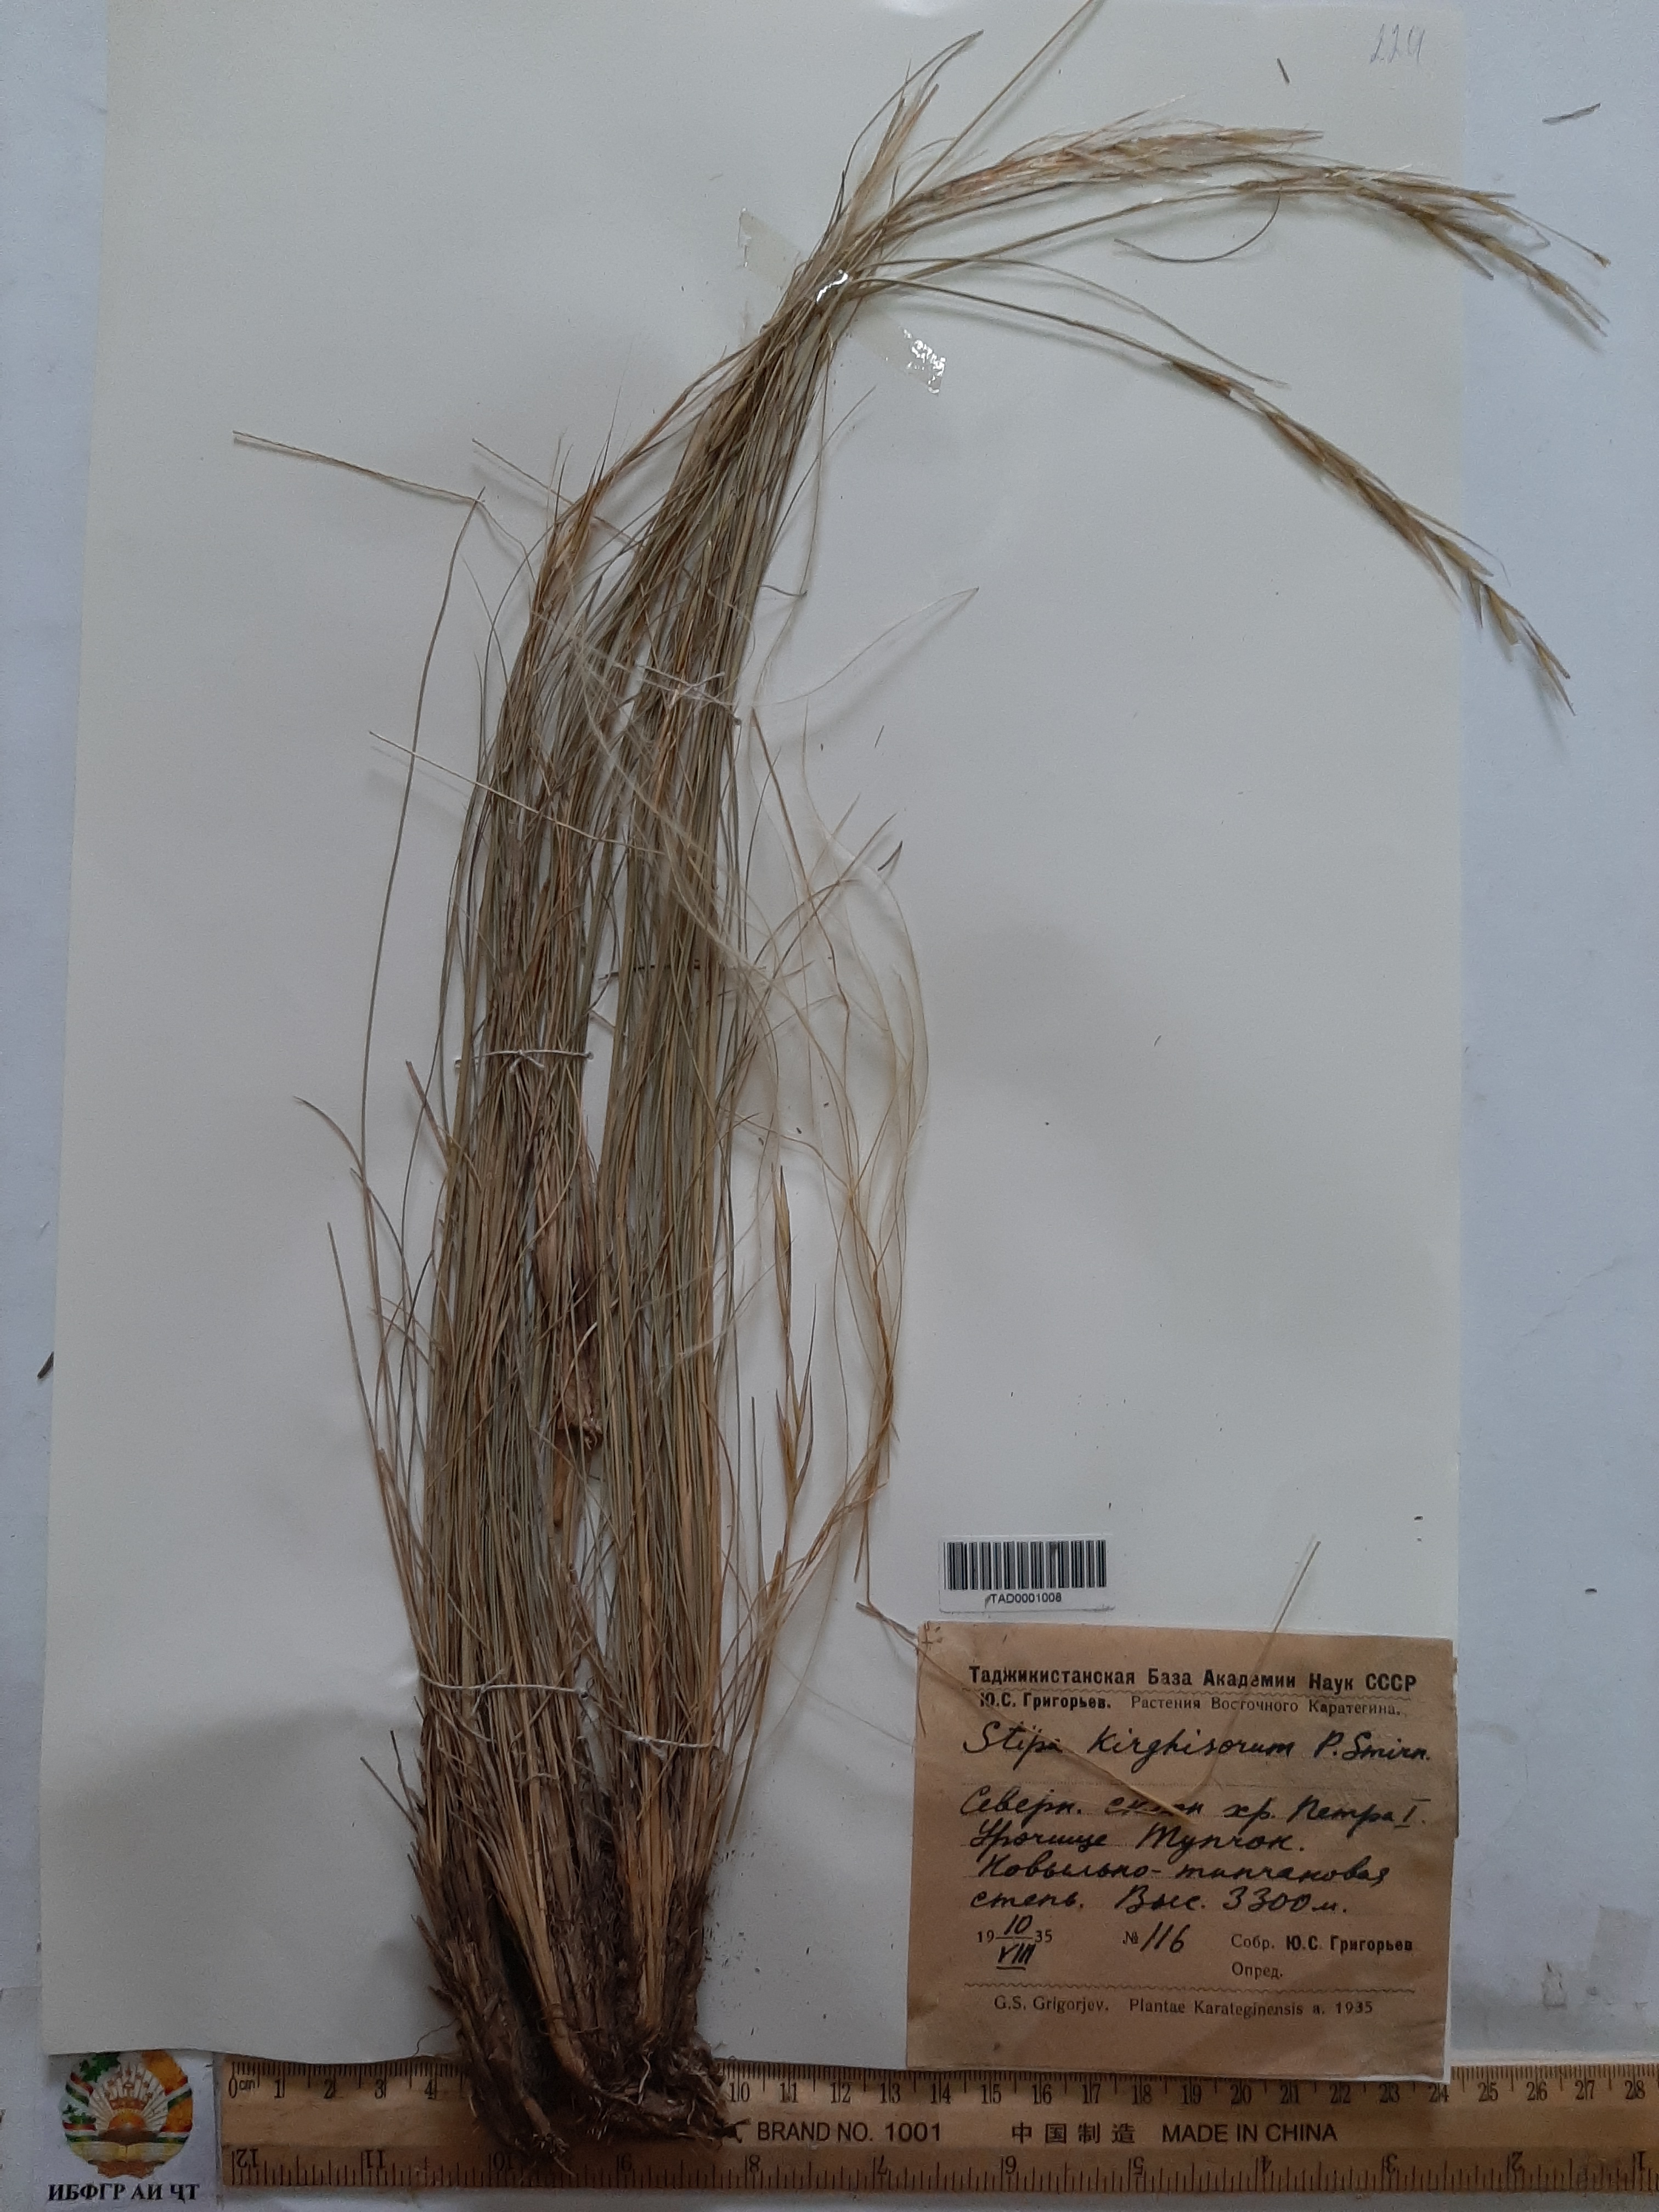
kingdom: Plantae
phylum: Tracheophyta
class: Liliopsida
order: Poales
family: Poaceae
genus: Stipa
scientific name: Stipa kirghisorum
